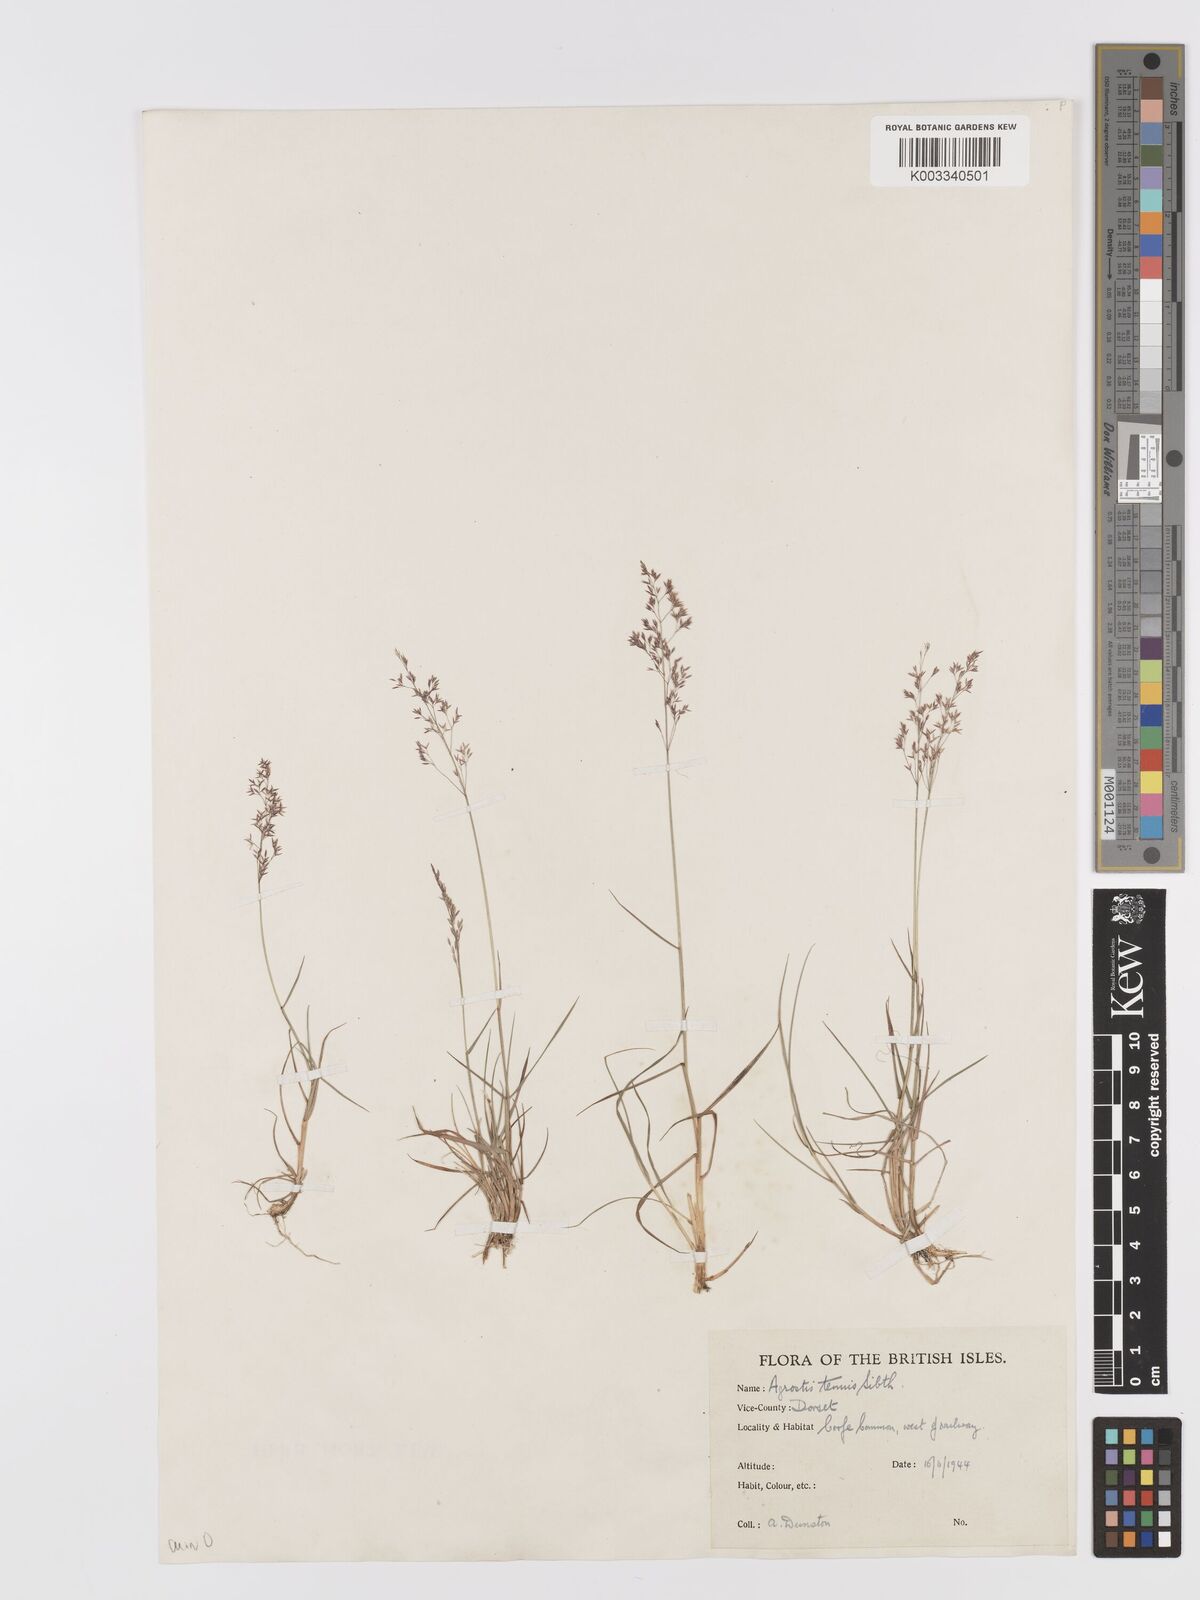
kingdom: Plantae
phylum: Tracheophyta
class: Liliopsida
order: Poales
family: Poaceae
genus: Agrostis
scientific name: Agrostis capillaris
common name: Colonial bentgrass
